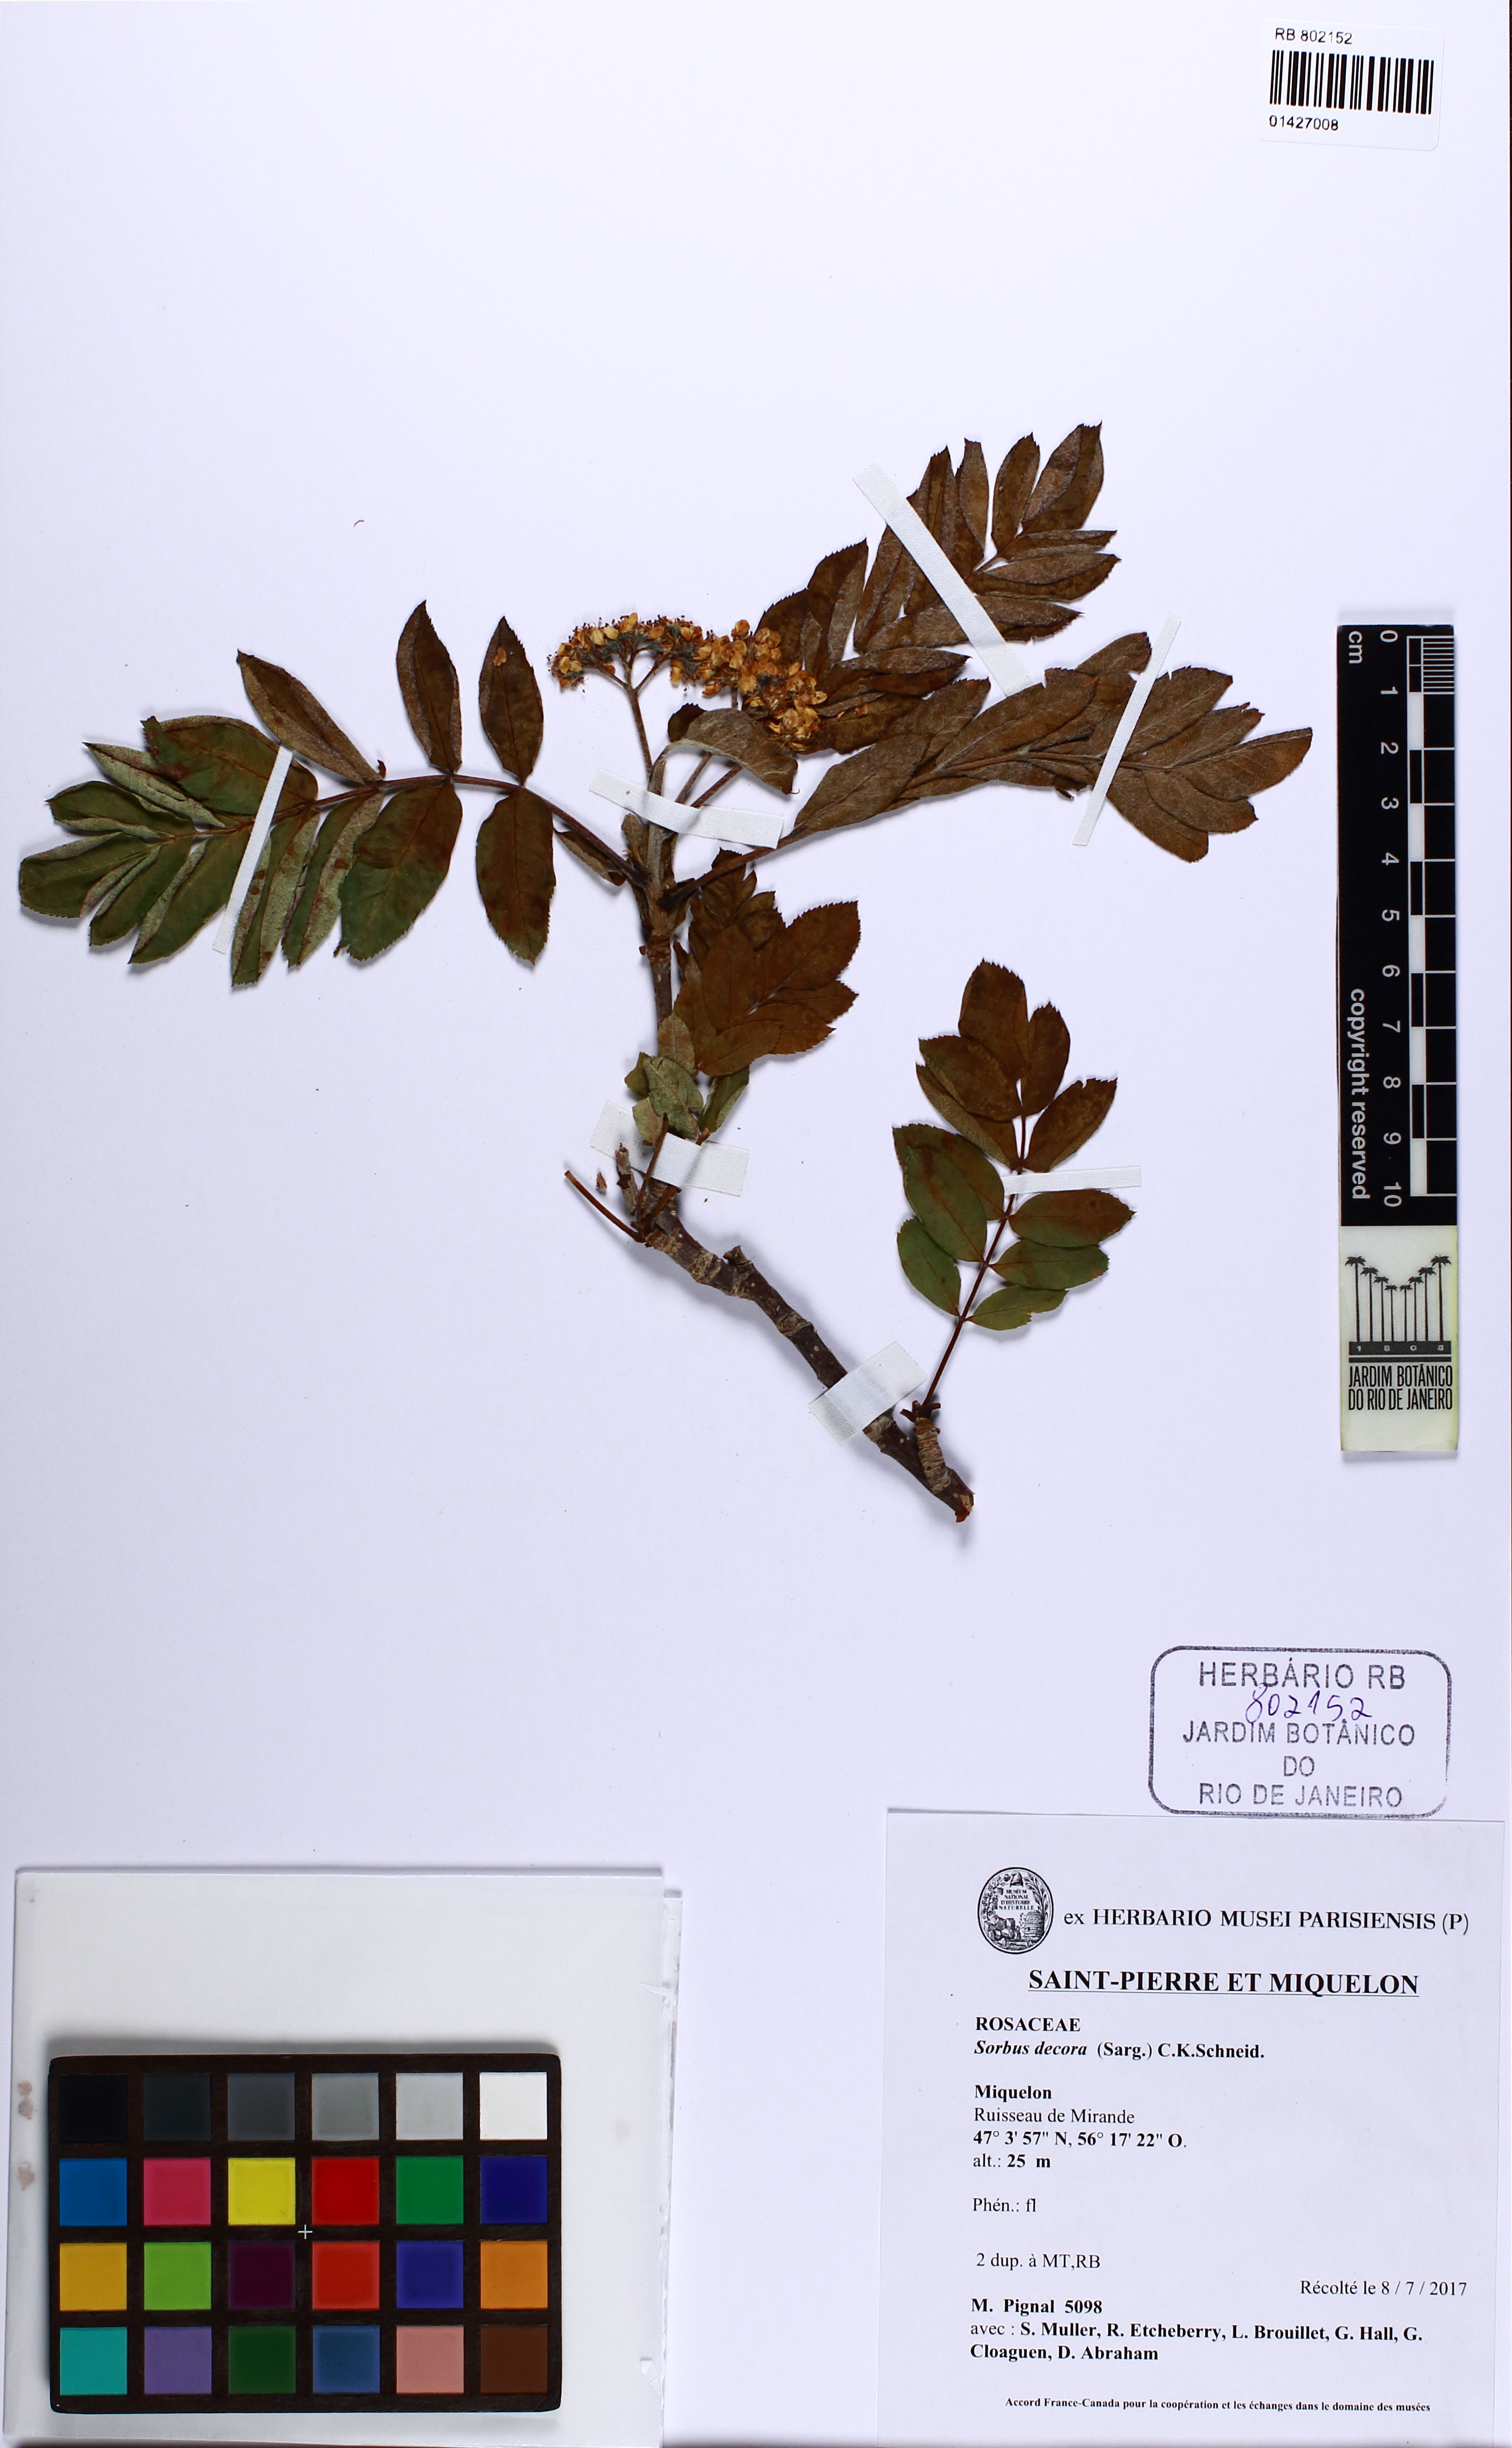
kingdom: Plantae
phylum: Tracheophyta
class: Magnoliopsida
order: Rosales
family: Rosaceae
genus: Sorbus
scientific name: Sorbus decora
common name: Northern mountain-ash
